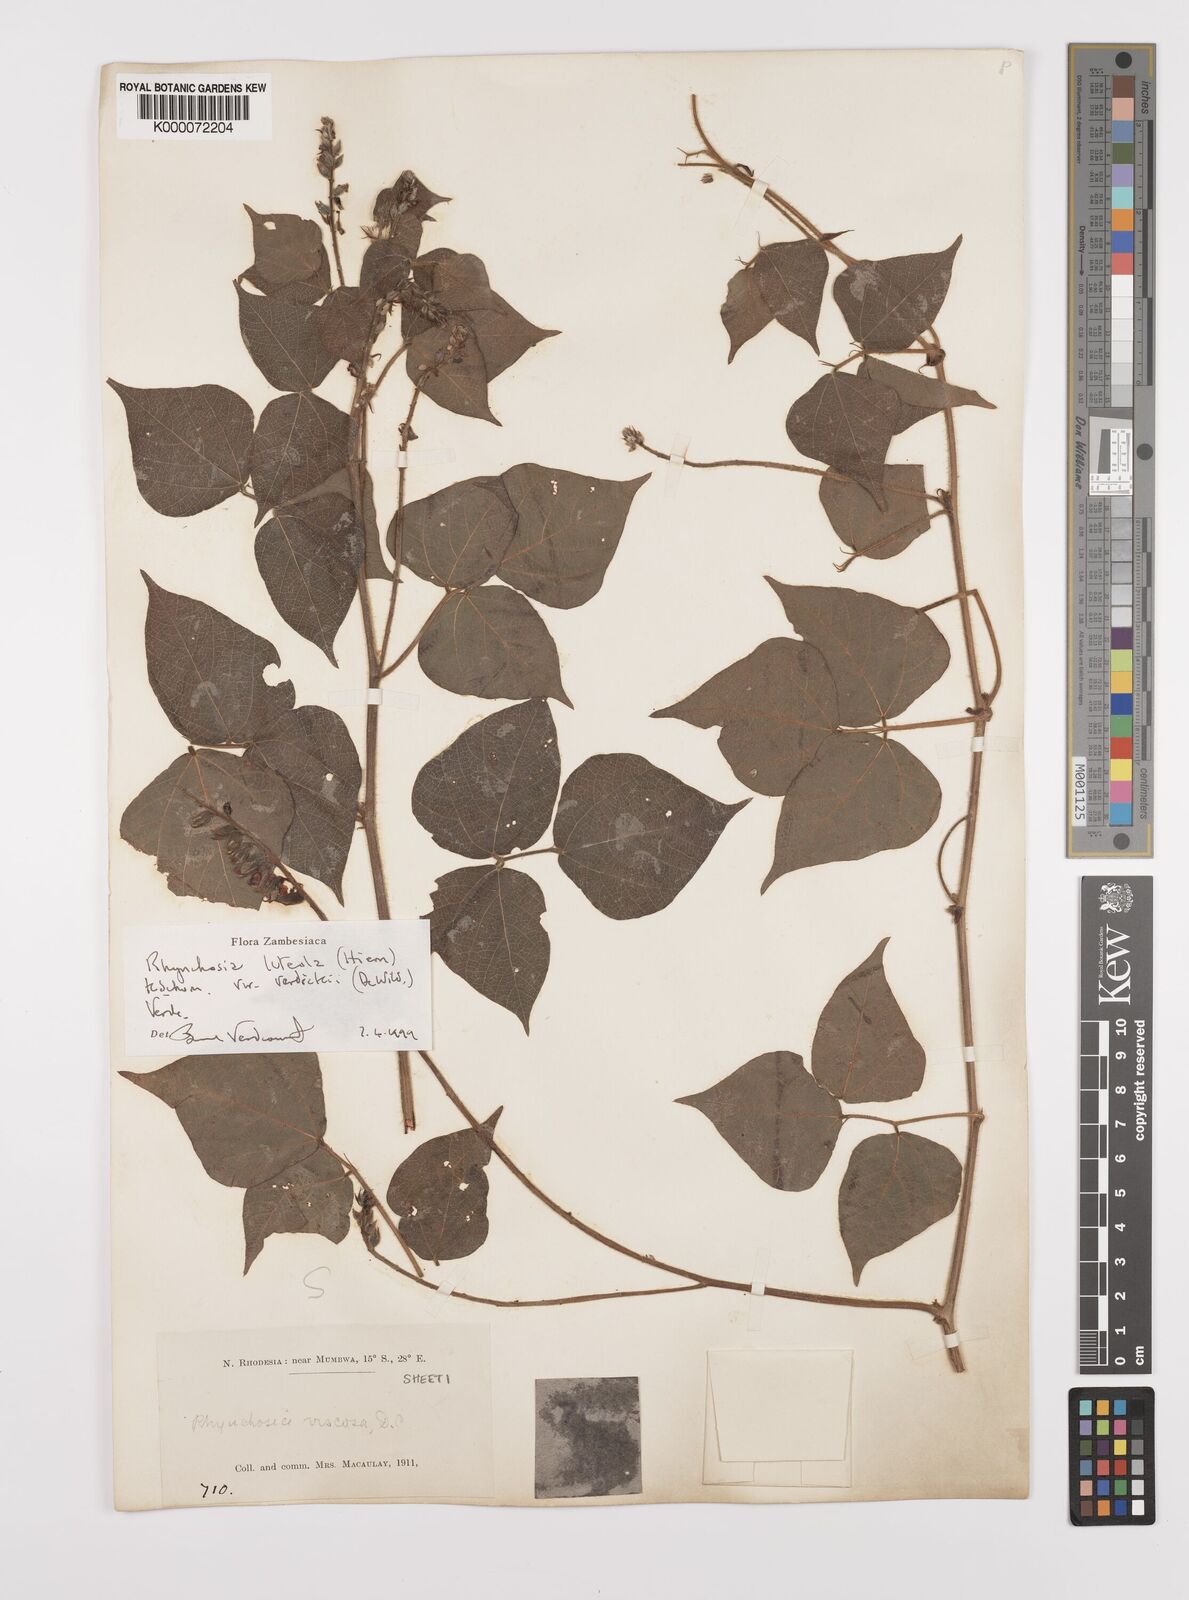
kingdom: Plantae
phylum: Tracheophyta
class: Magnoliopsida
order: Fabales
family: Fabaceae
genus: Rhynchosia
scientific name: Rhynchosia luteola
